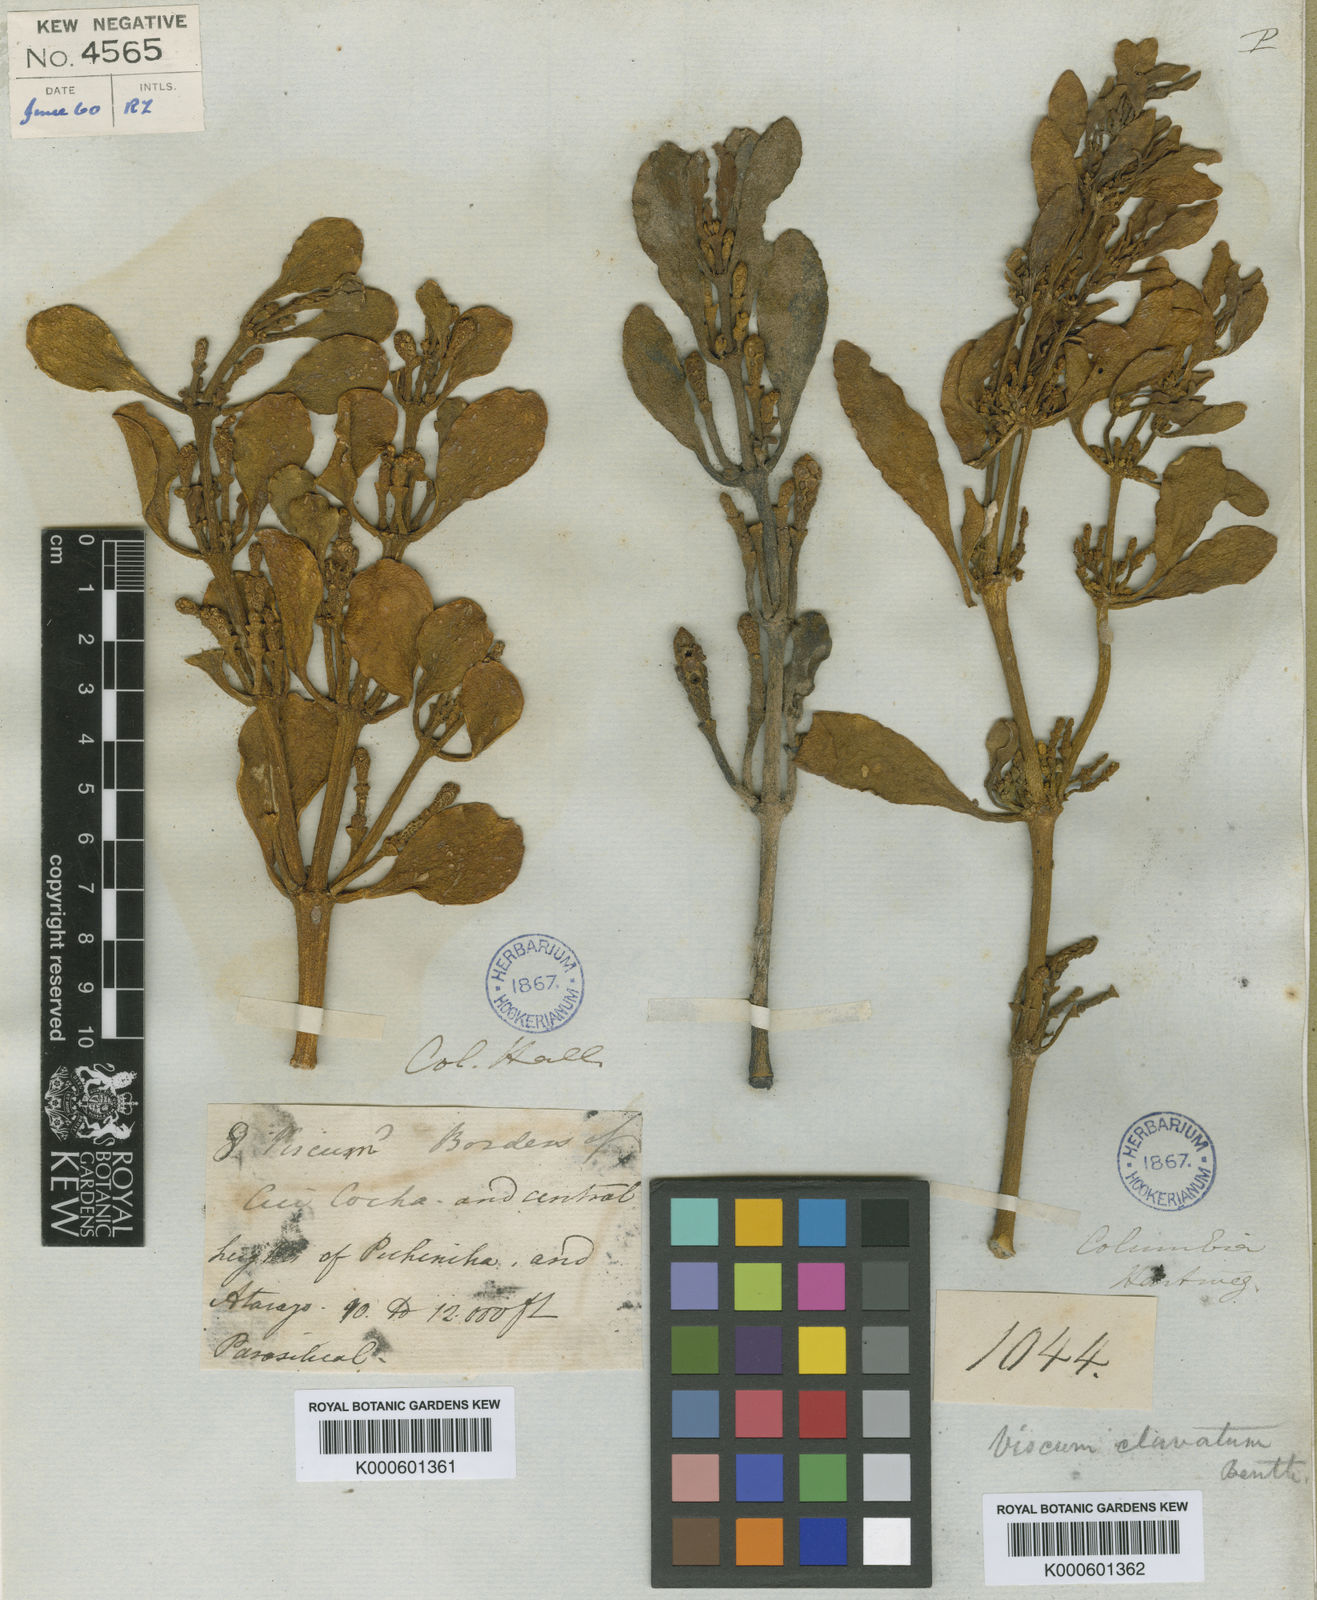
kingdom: Plantae
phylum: Tracheophyta
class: Magnoliopsida
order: Santalales
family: Viscaceae
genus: Dendrophthora
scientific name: Dendrophthora clavata
